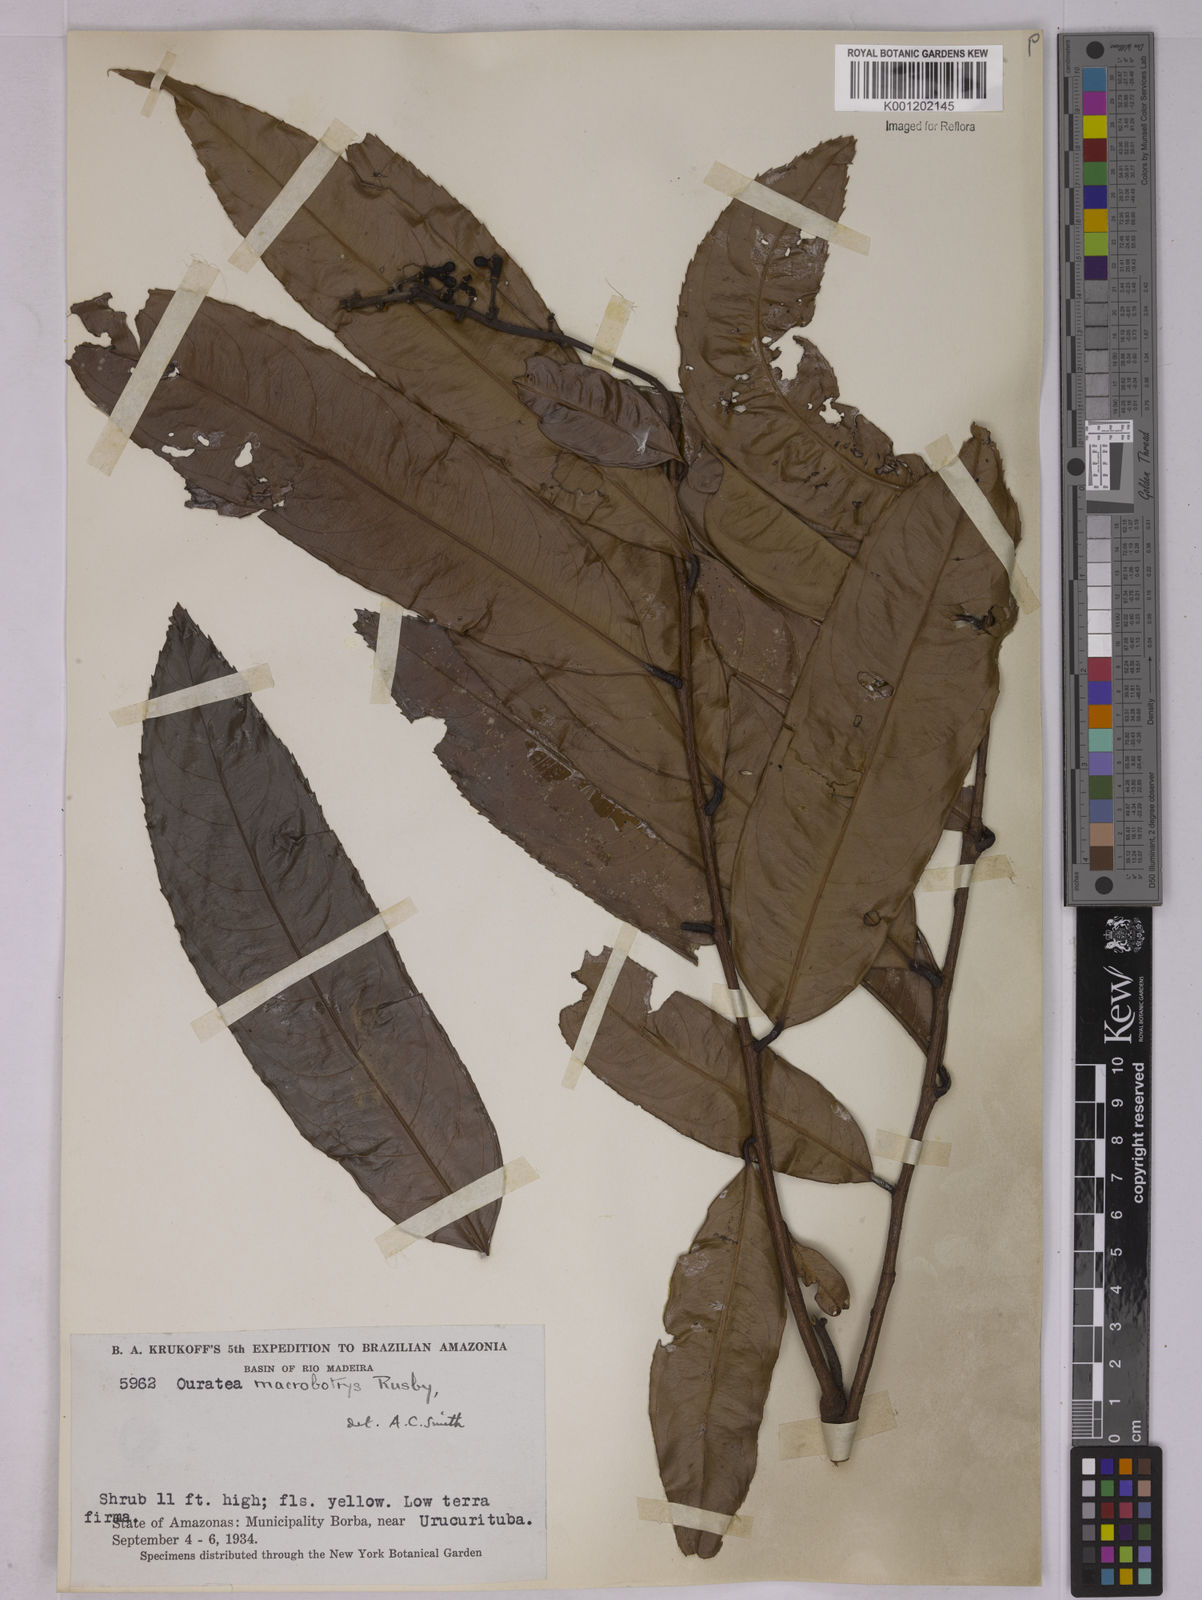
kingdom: Plantae
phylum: Tracheophyta
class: Magnoliopsida
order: Malpighiales
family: Ochnaceae
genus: Ouratea
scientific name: Ouratea fieldingiana
